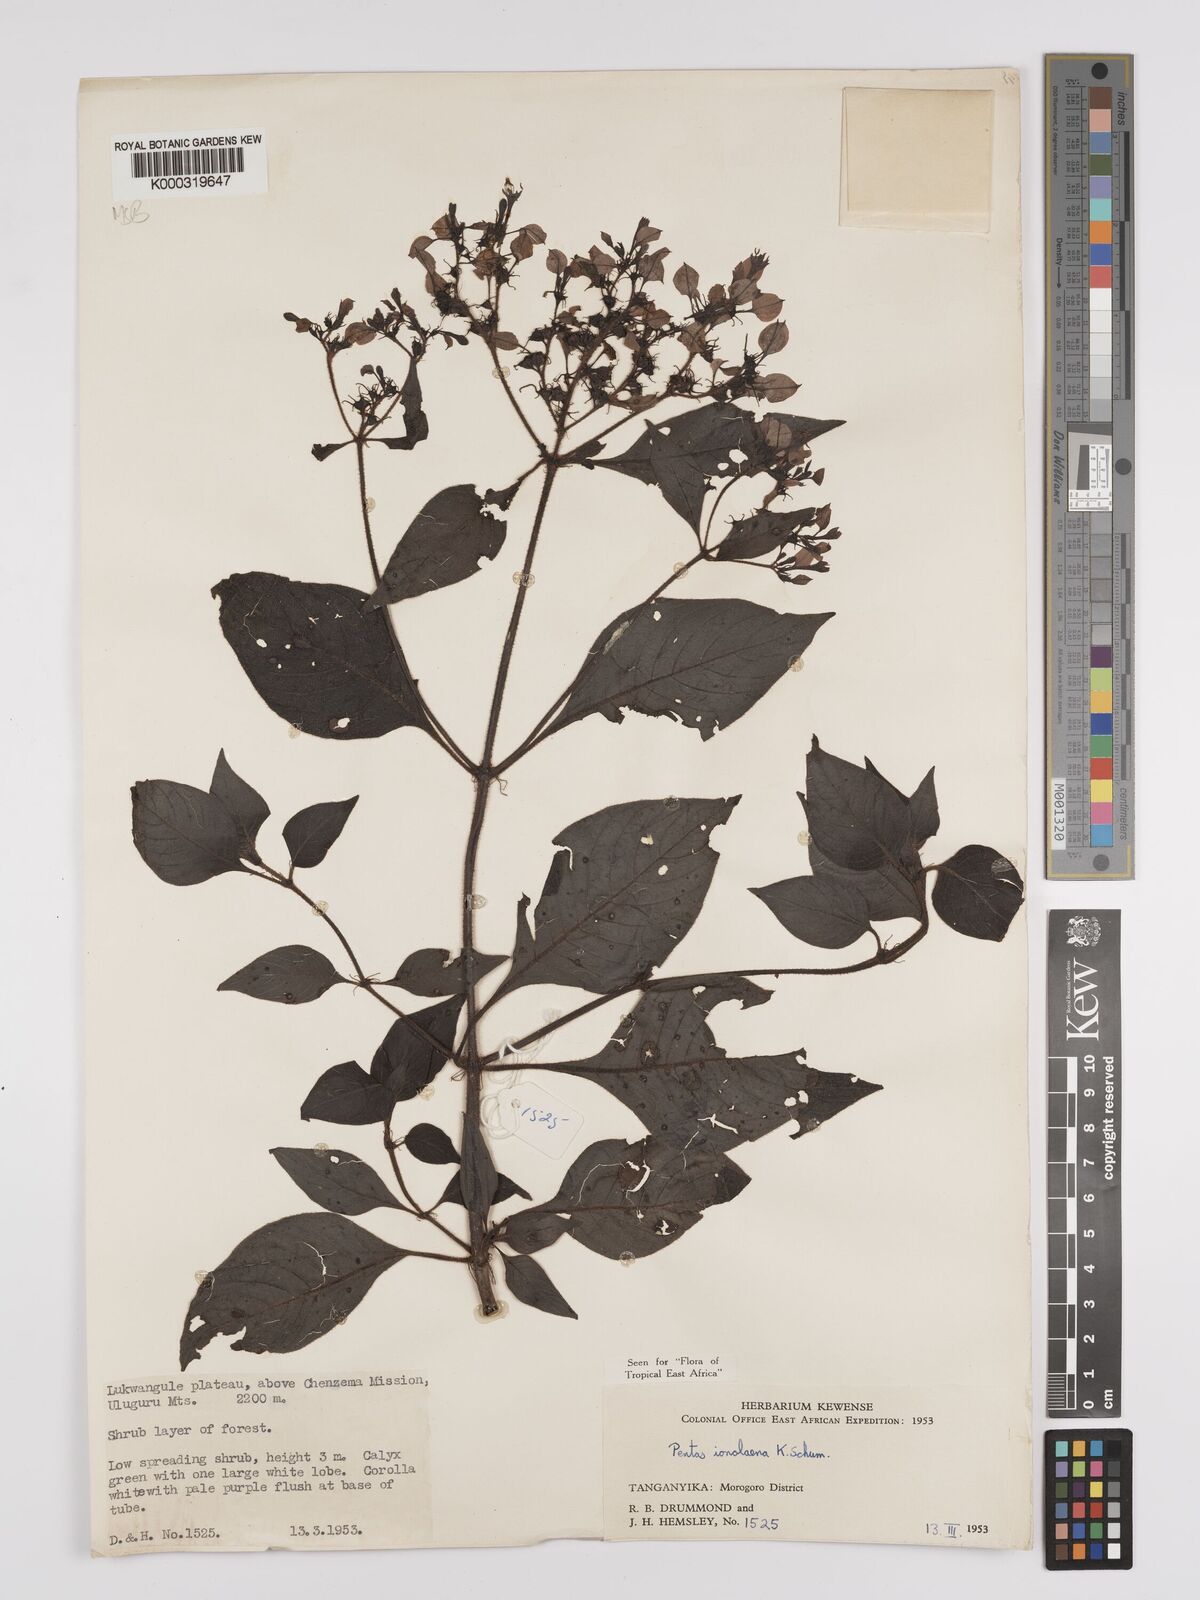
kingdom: Plantae
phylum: Tracheophyta
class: Magnoliopsida
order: Gentianales
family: Rubiaceae
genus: Phyllopentas
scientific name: Phyllopentas ionolaena
